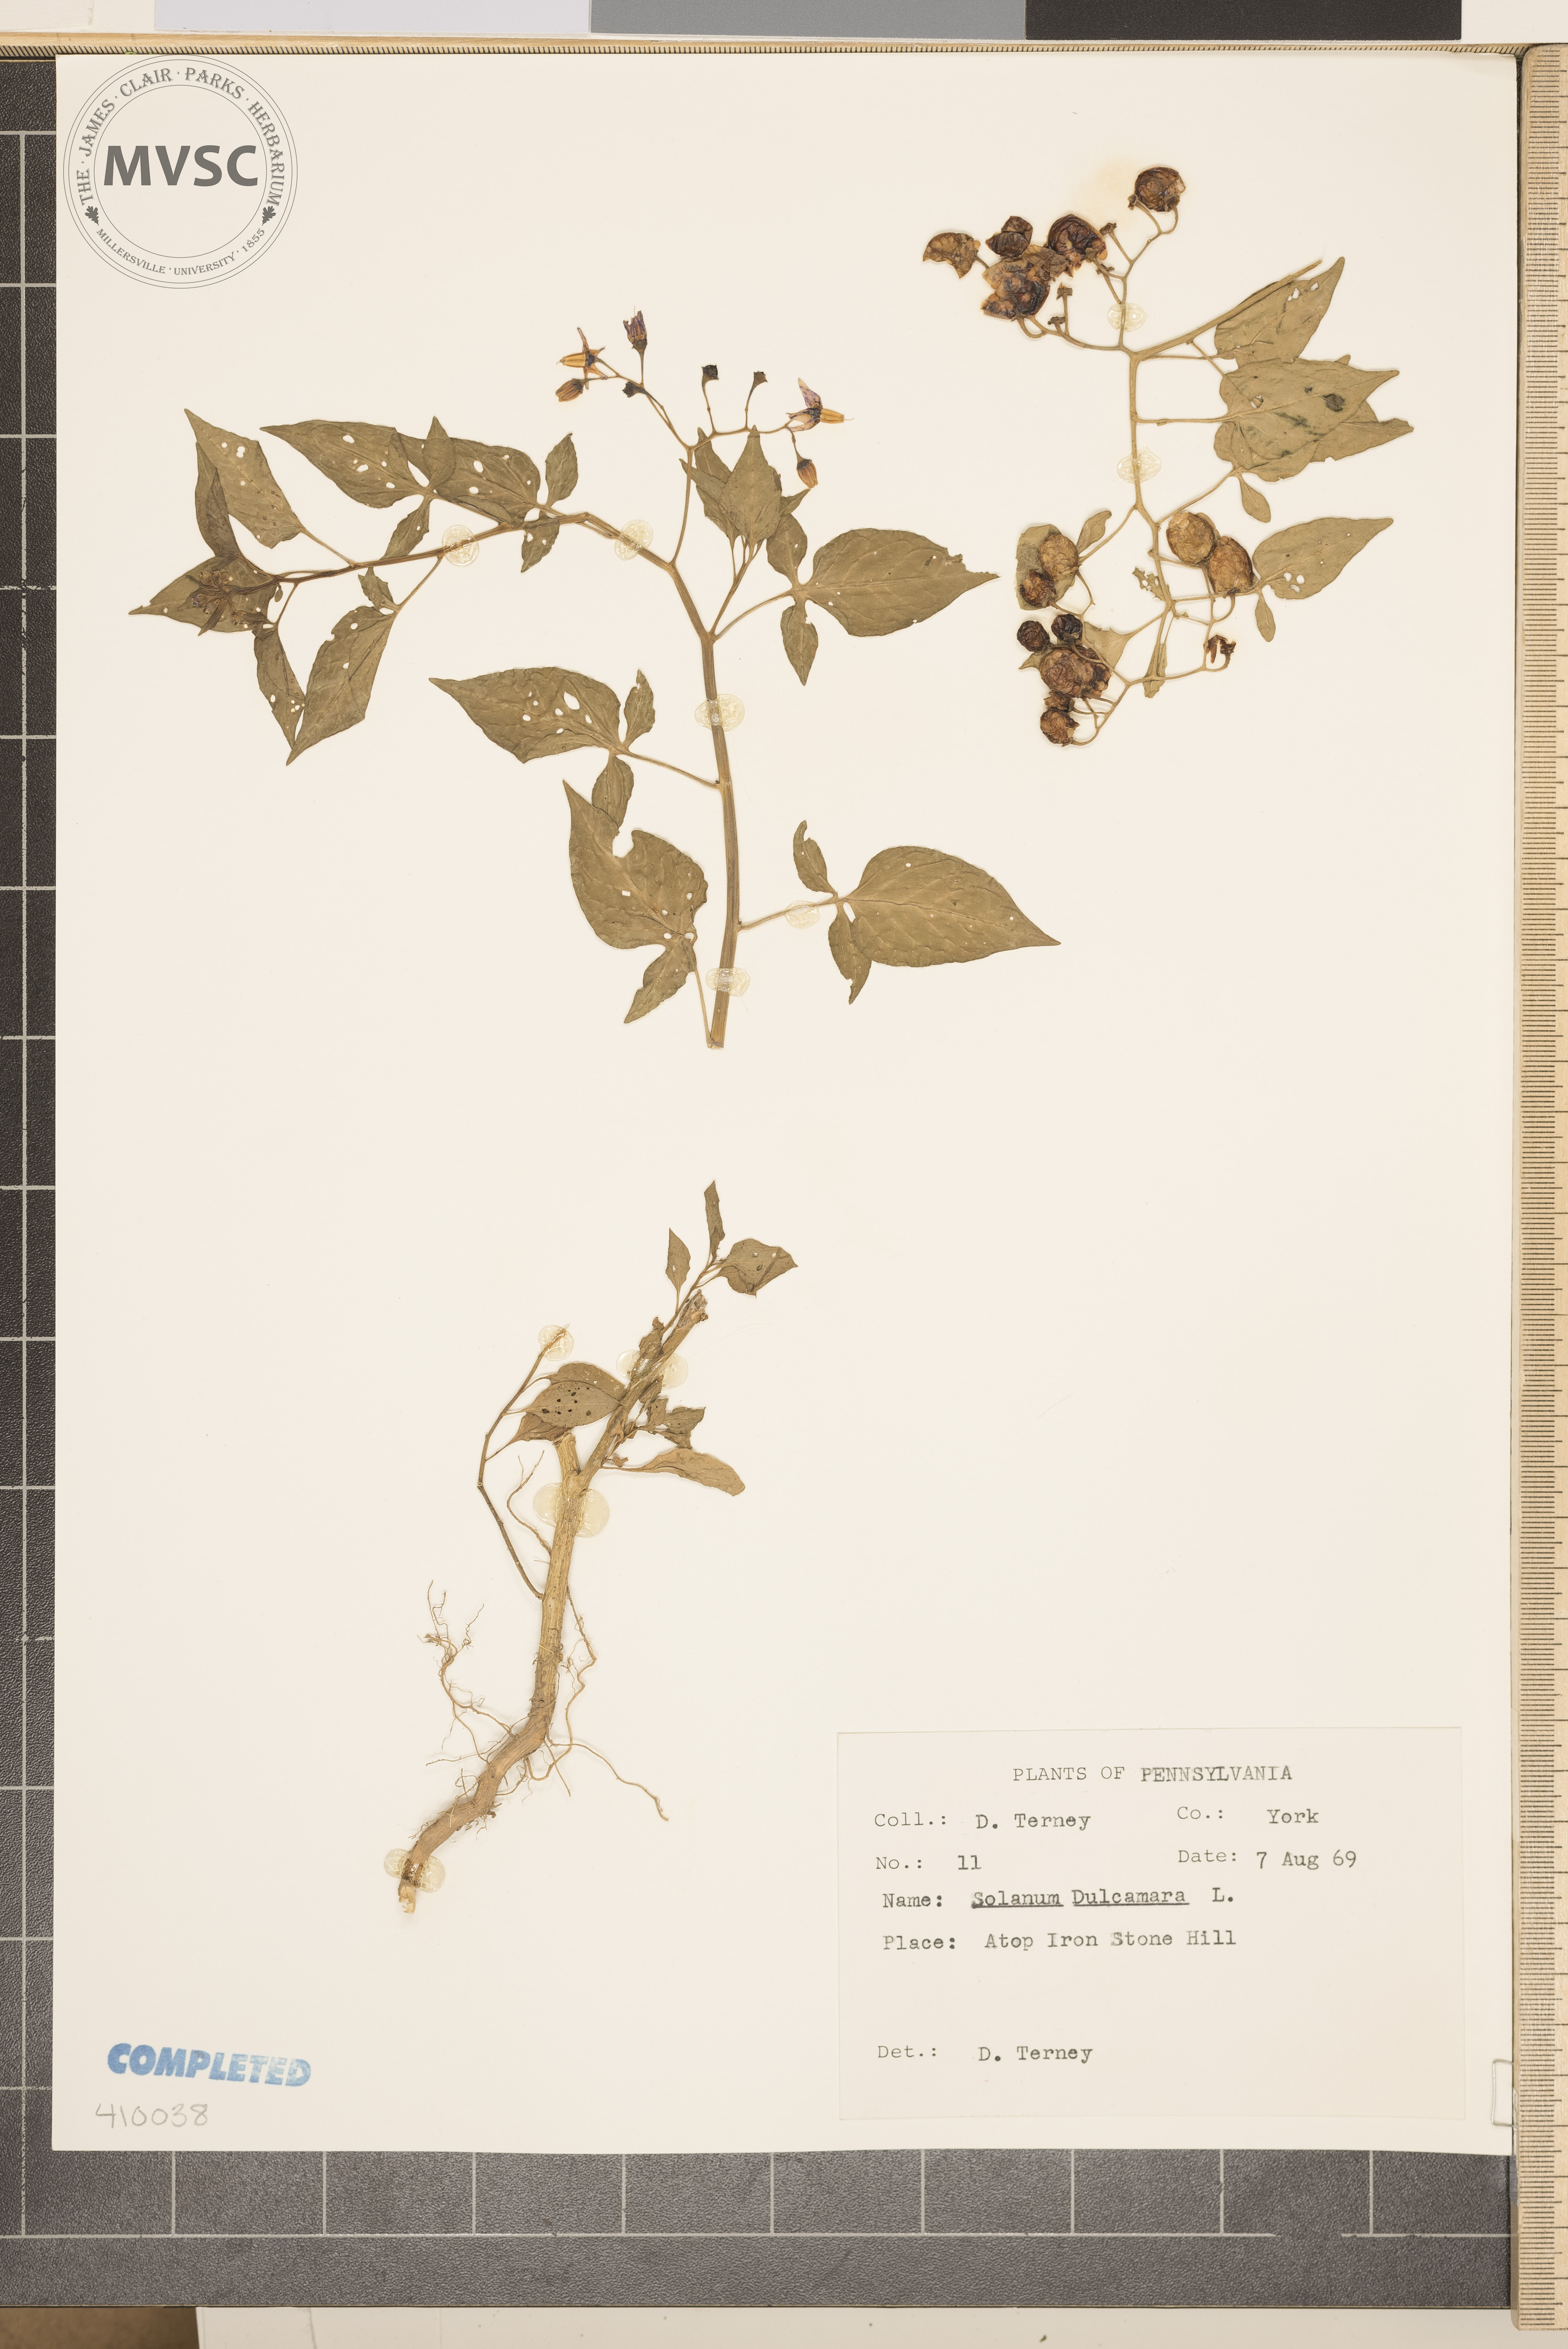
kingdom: Plantae
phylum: Tracheophyta
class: Magnoliopsida
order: Solanales
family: Solanaceae
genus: Solanum
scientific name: Solanum dulcamara
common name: Climbing nightshade
